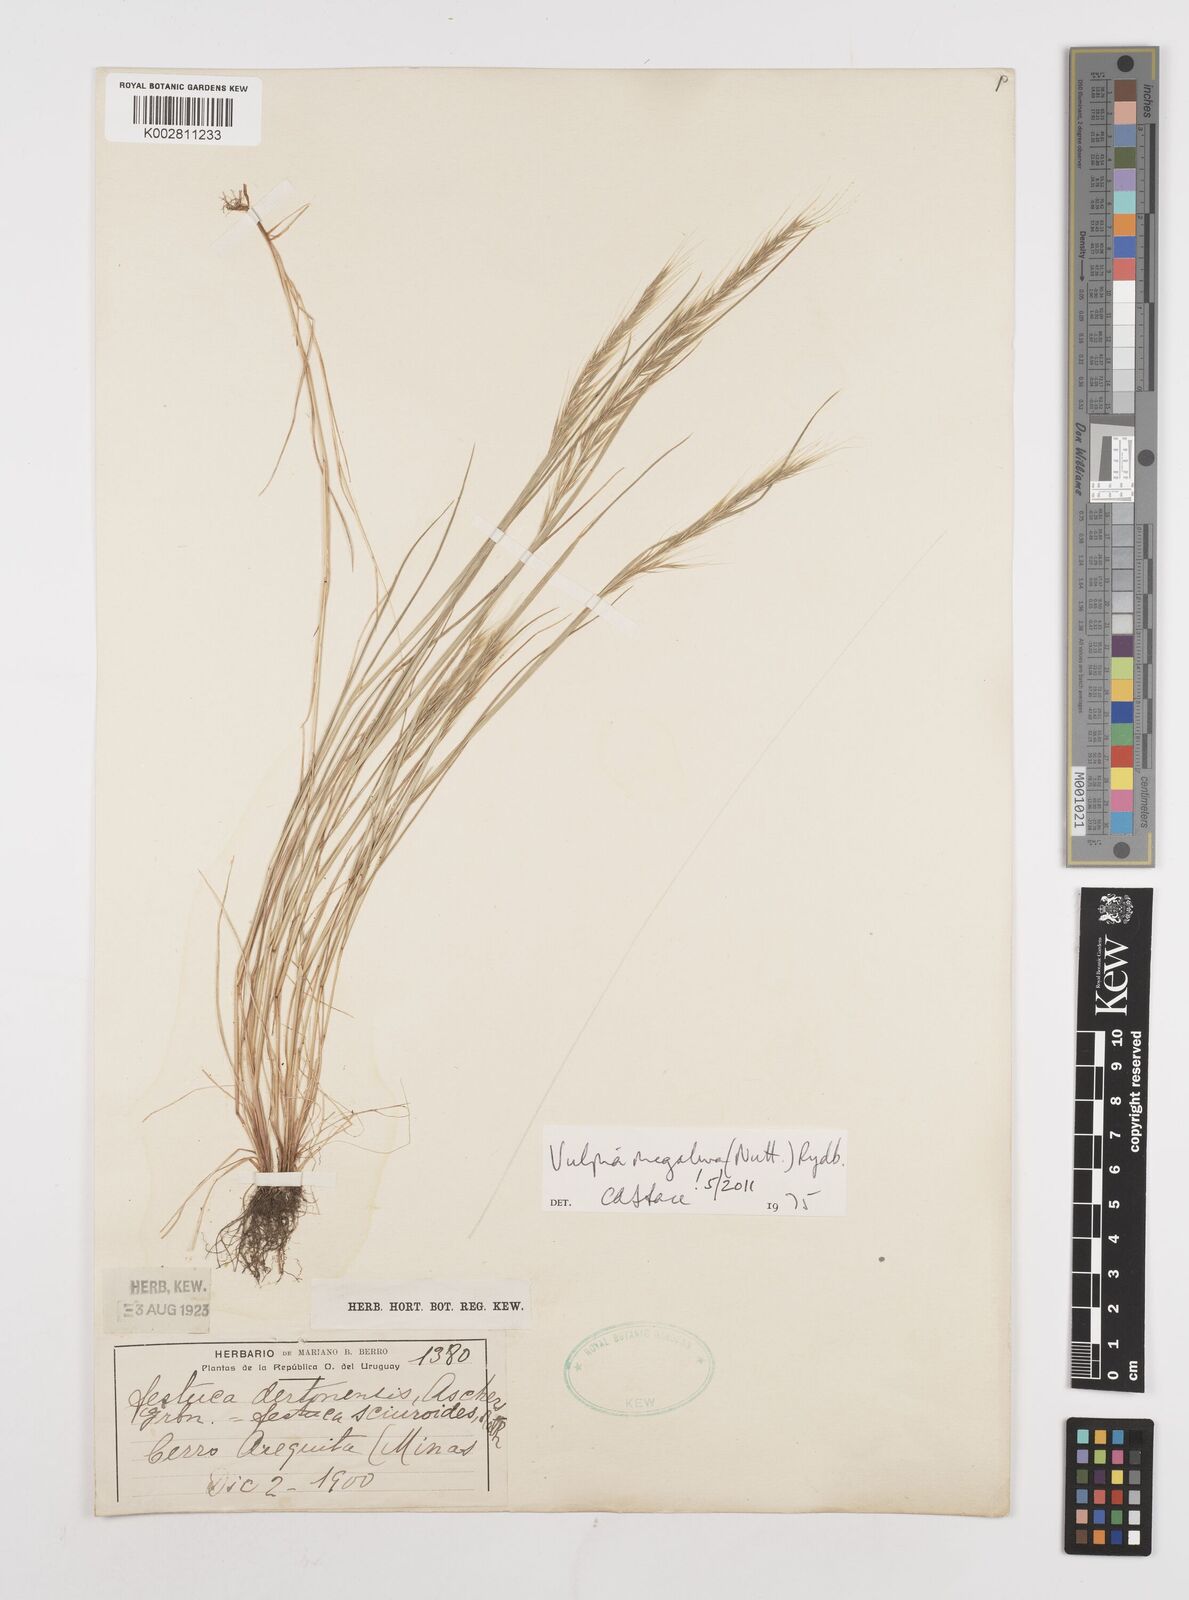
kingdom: Plantae
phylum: Tracheophyta
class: Liliopsida
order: Poales
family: Poaceae
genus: Festuca
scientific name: Festuca myuros
